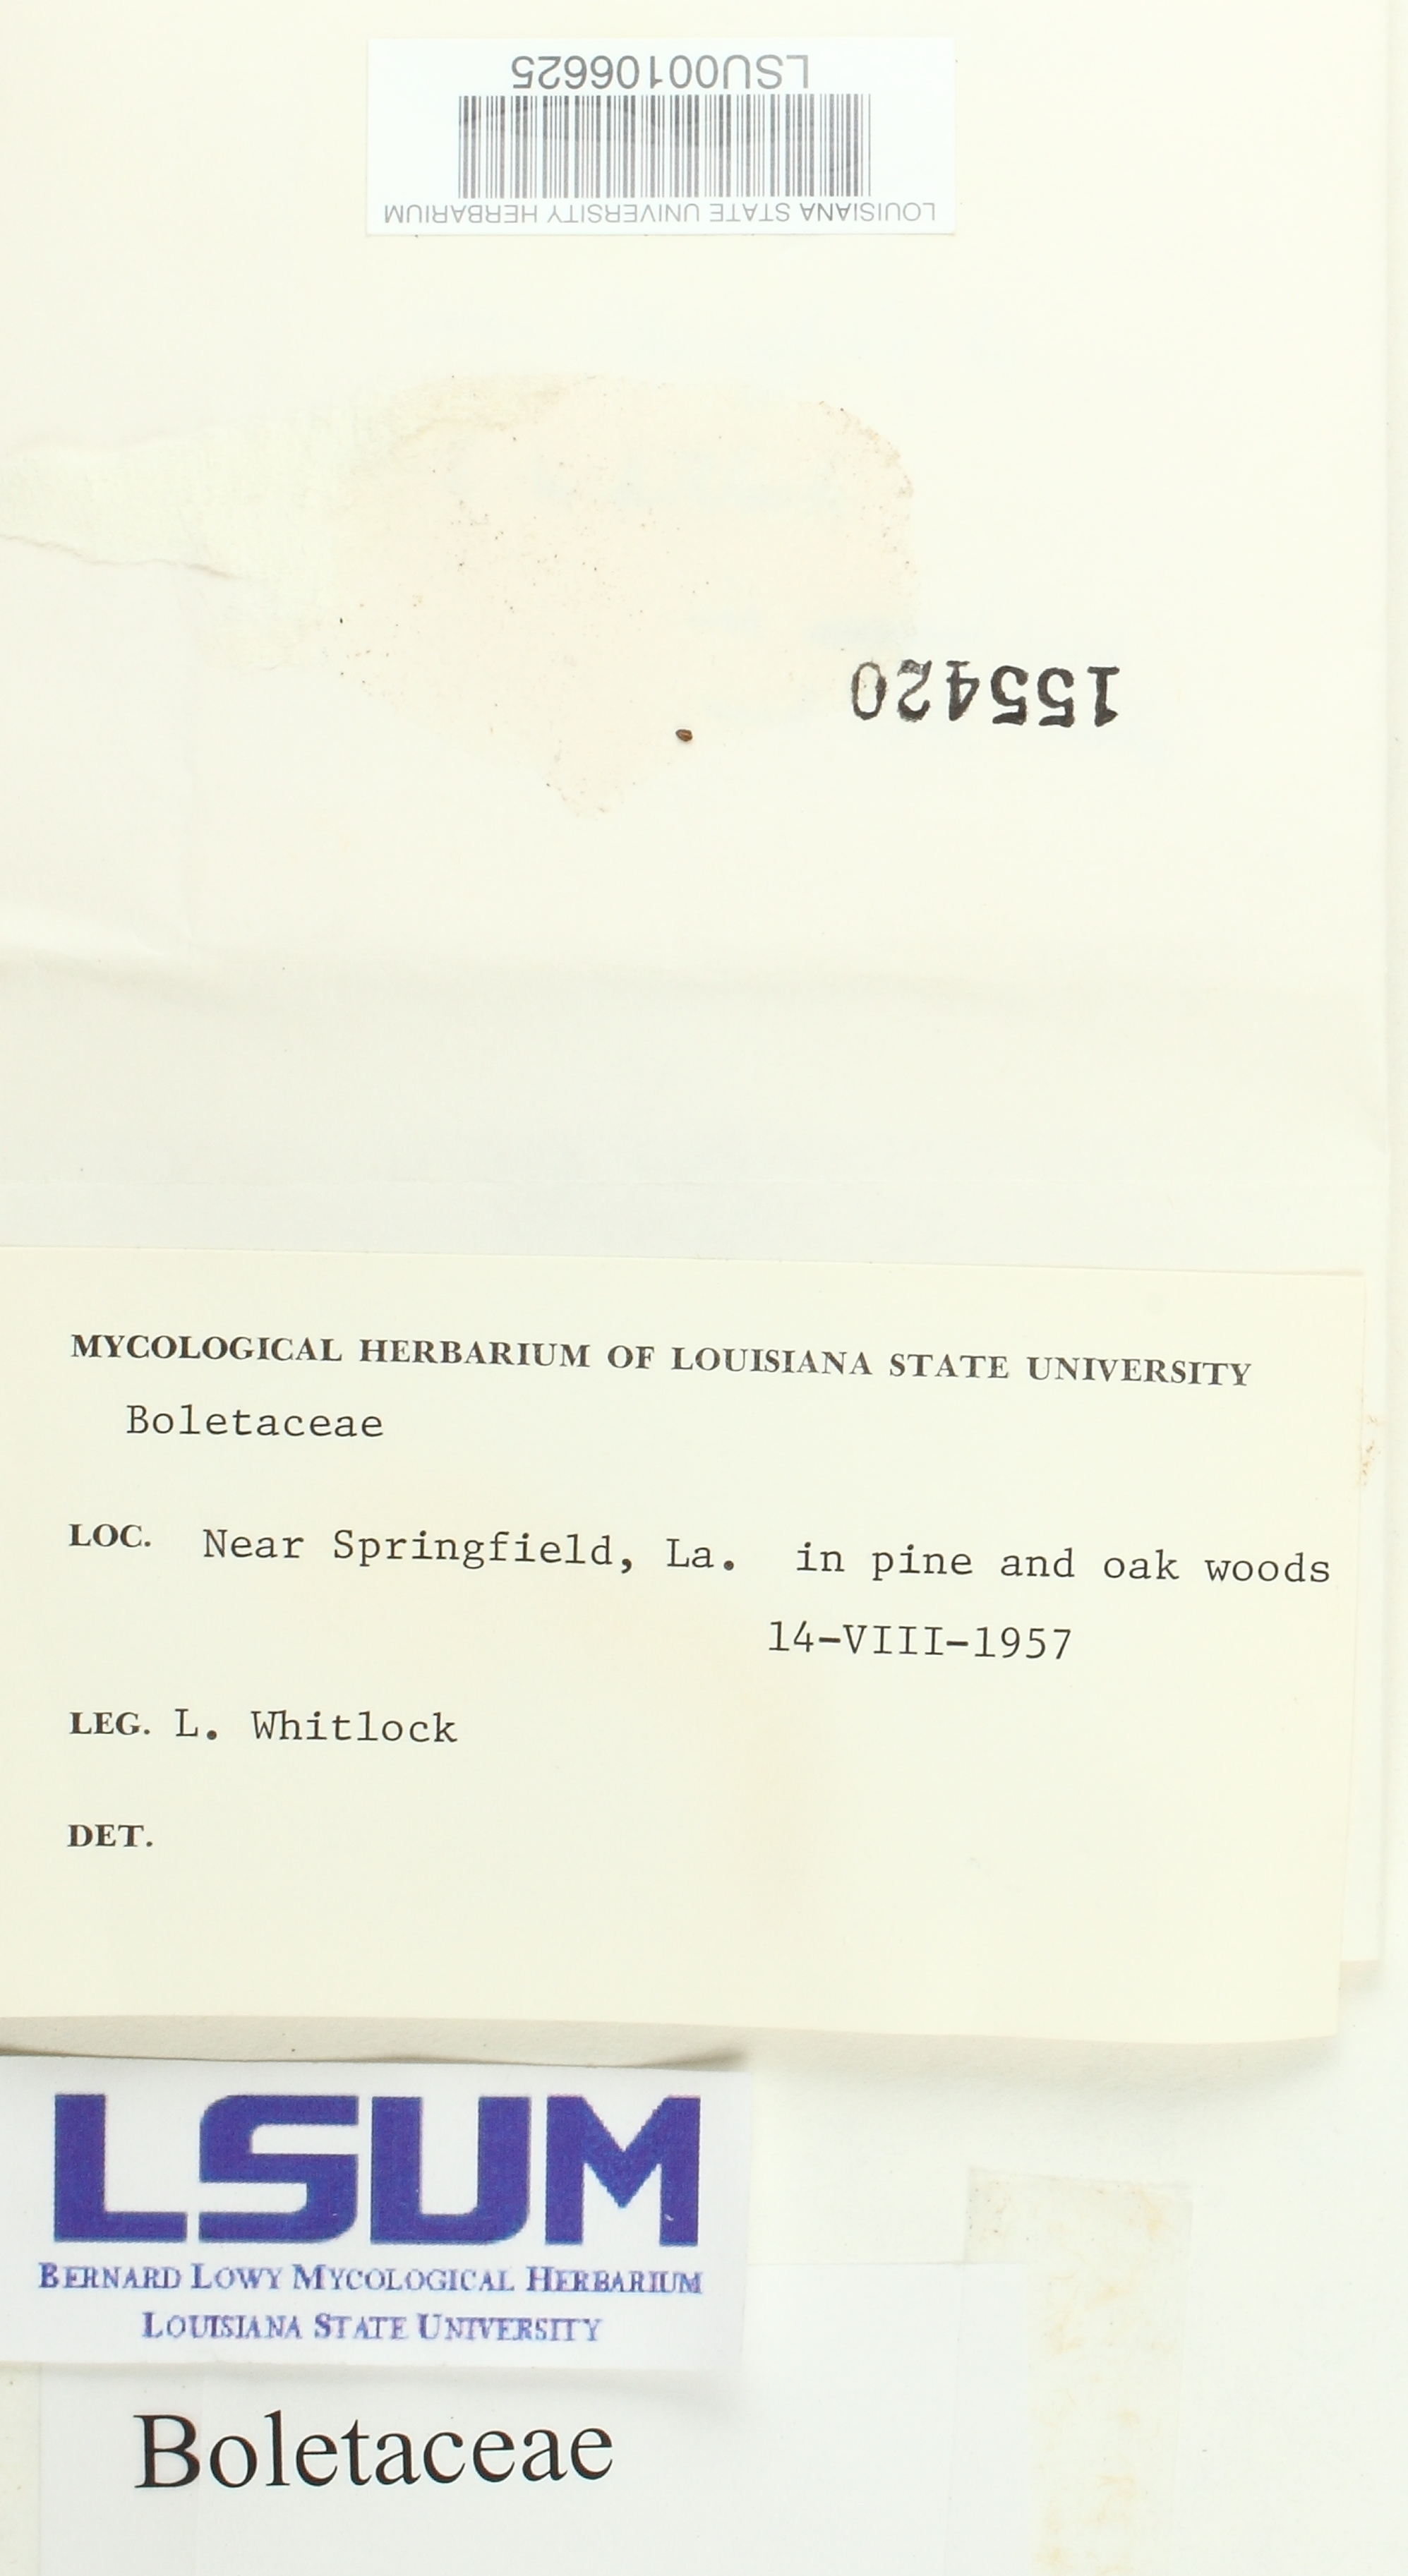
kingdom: Fungi
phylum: Basidiomycota
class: Agaricomycetes
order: Boletales
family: Boletaceae
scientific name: Boletaceae
